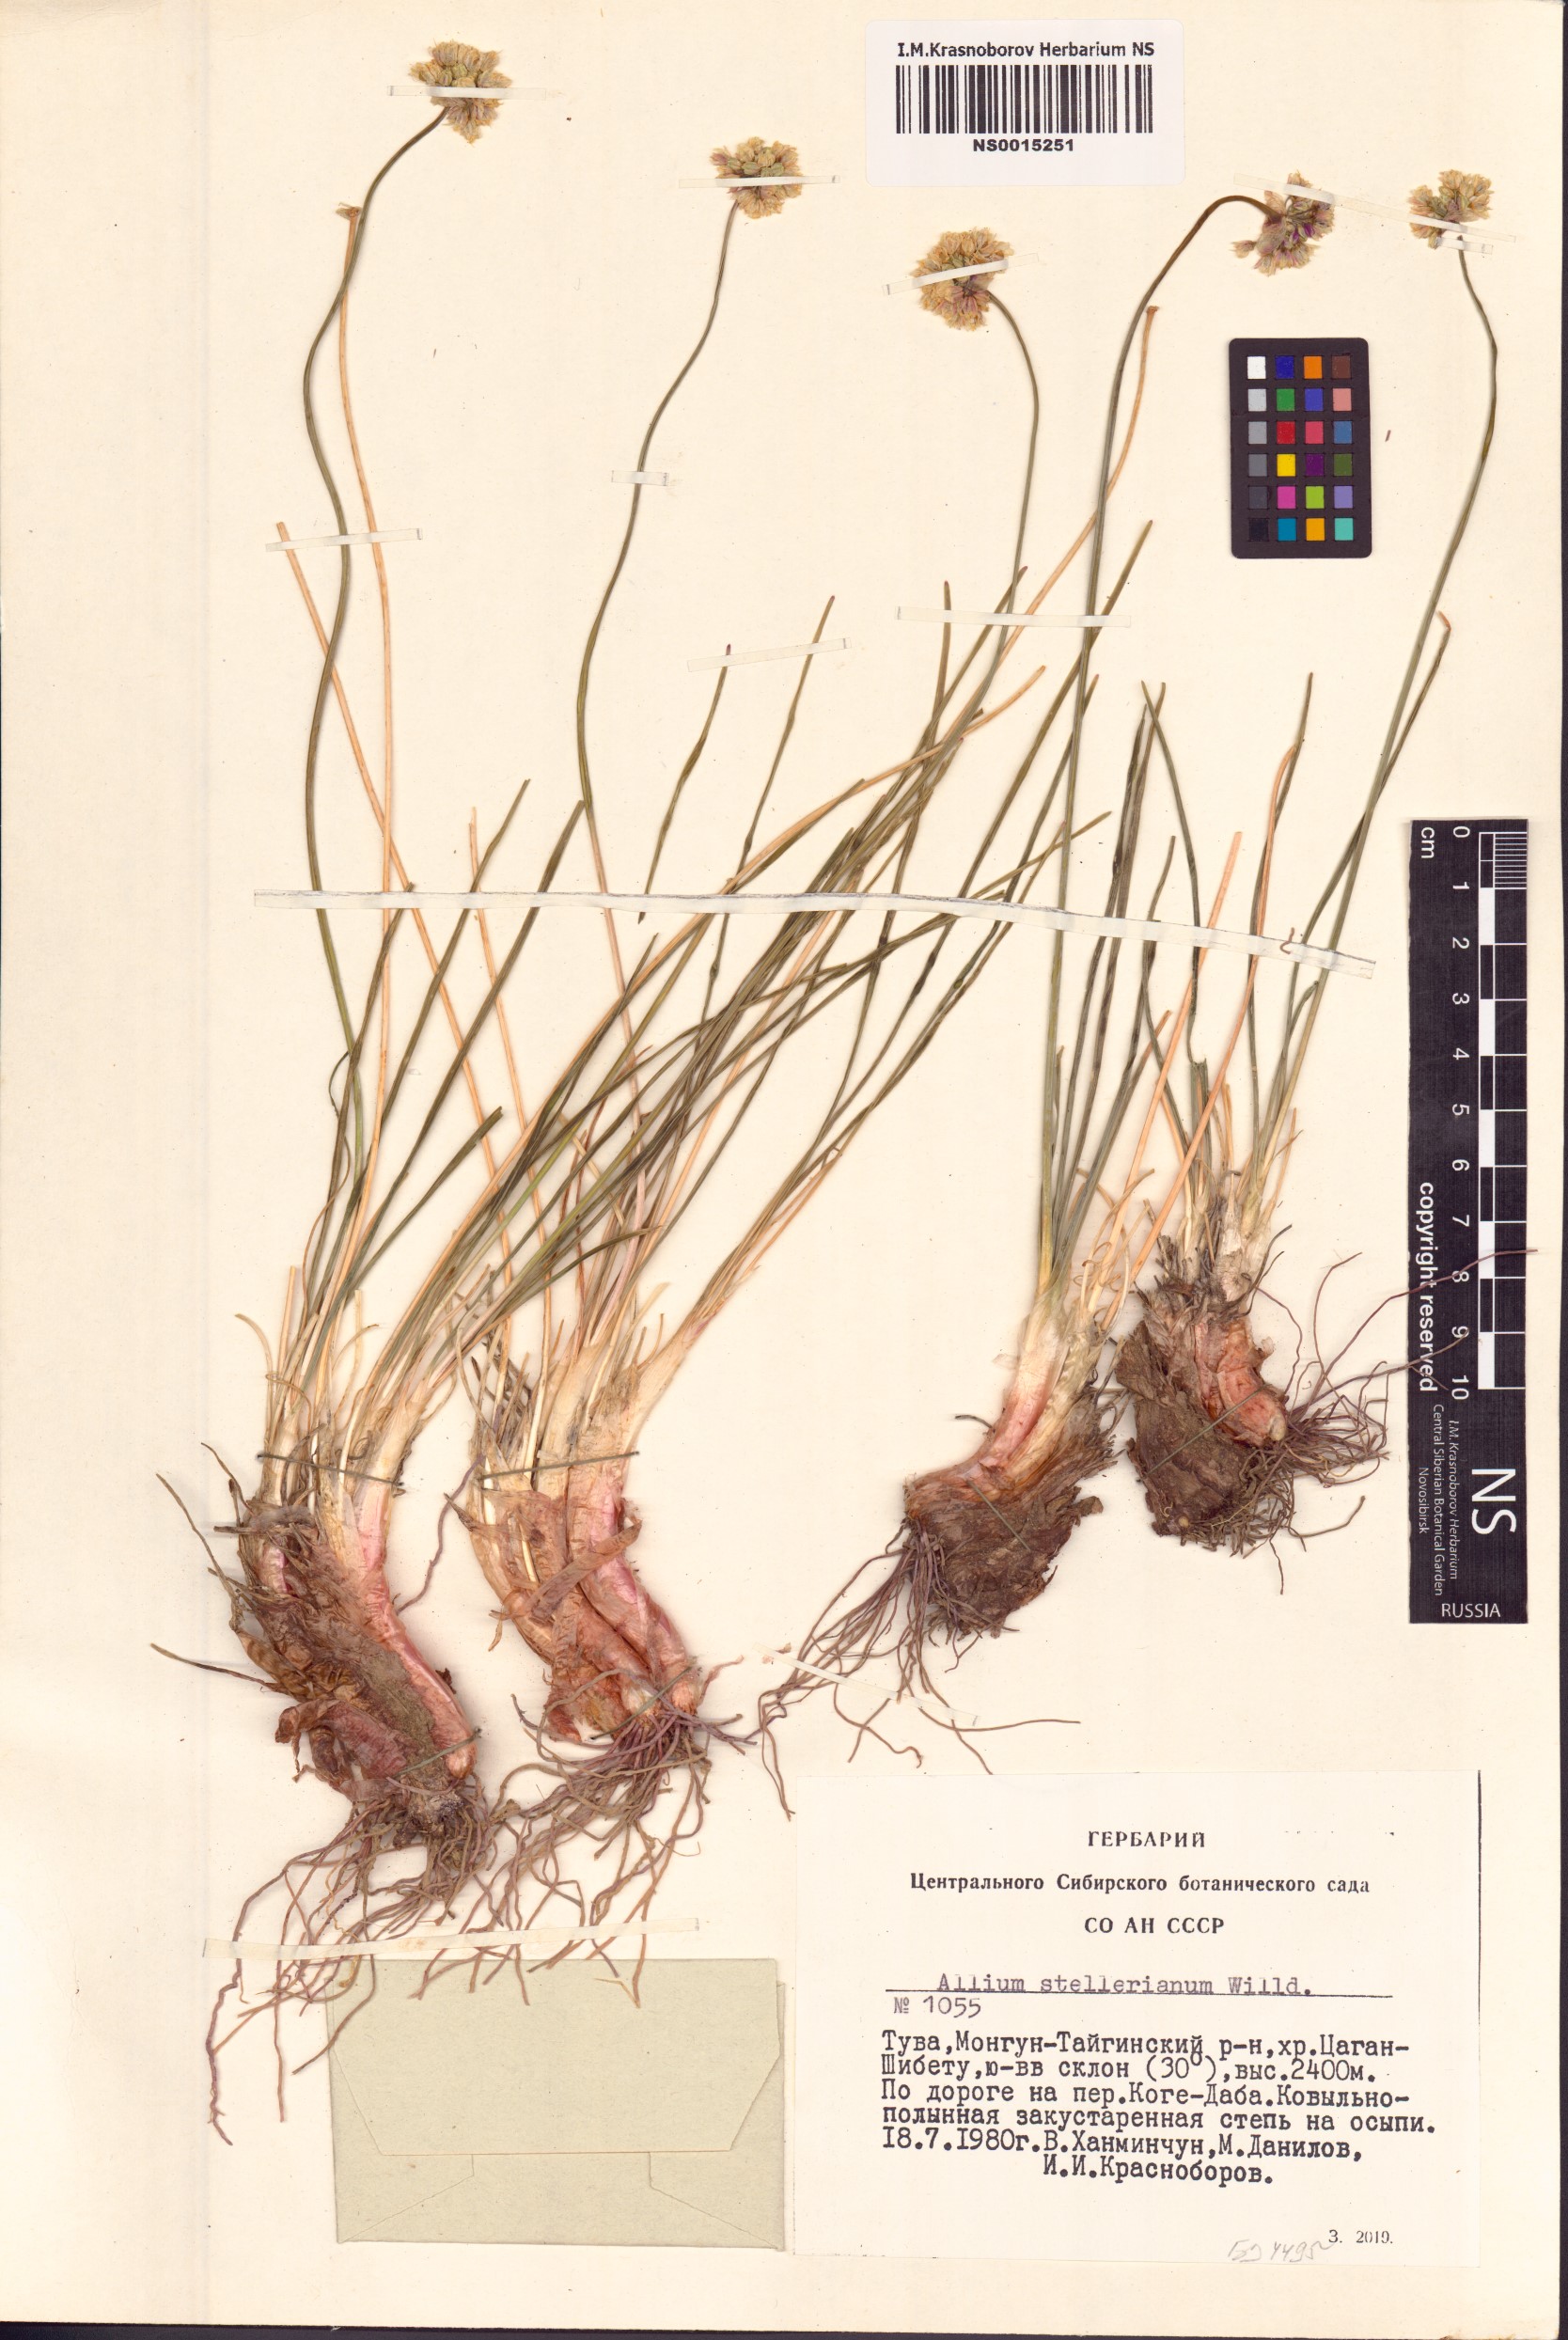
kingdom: Plantae
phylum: Tracheophyta
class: Liliopsida
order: Asparagales
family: Amaryllidaceae
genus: Allium
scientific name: Allium stellerianum
